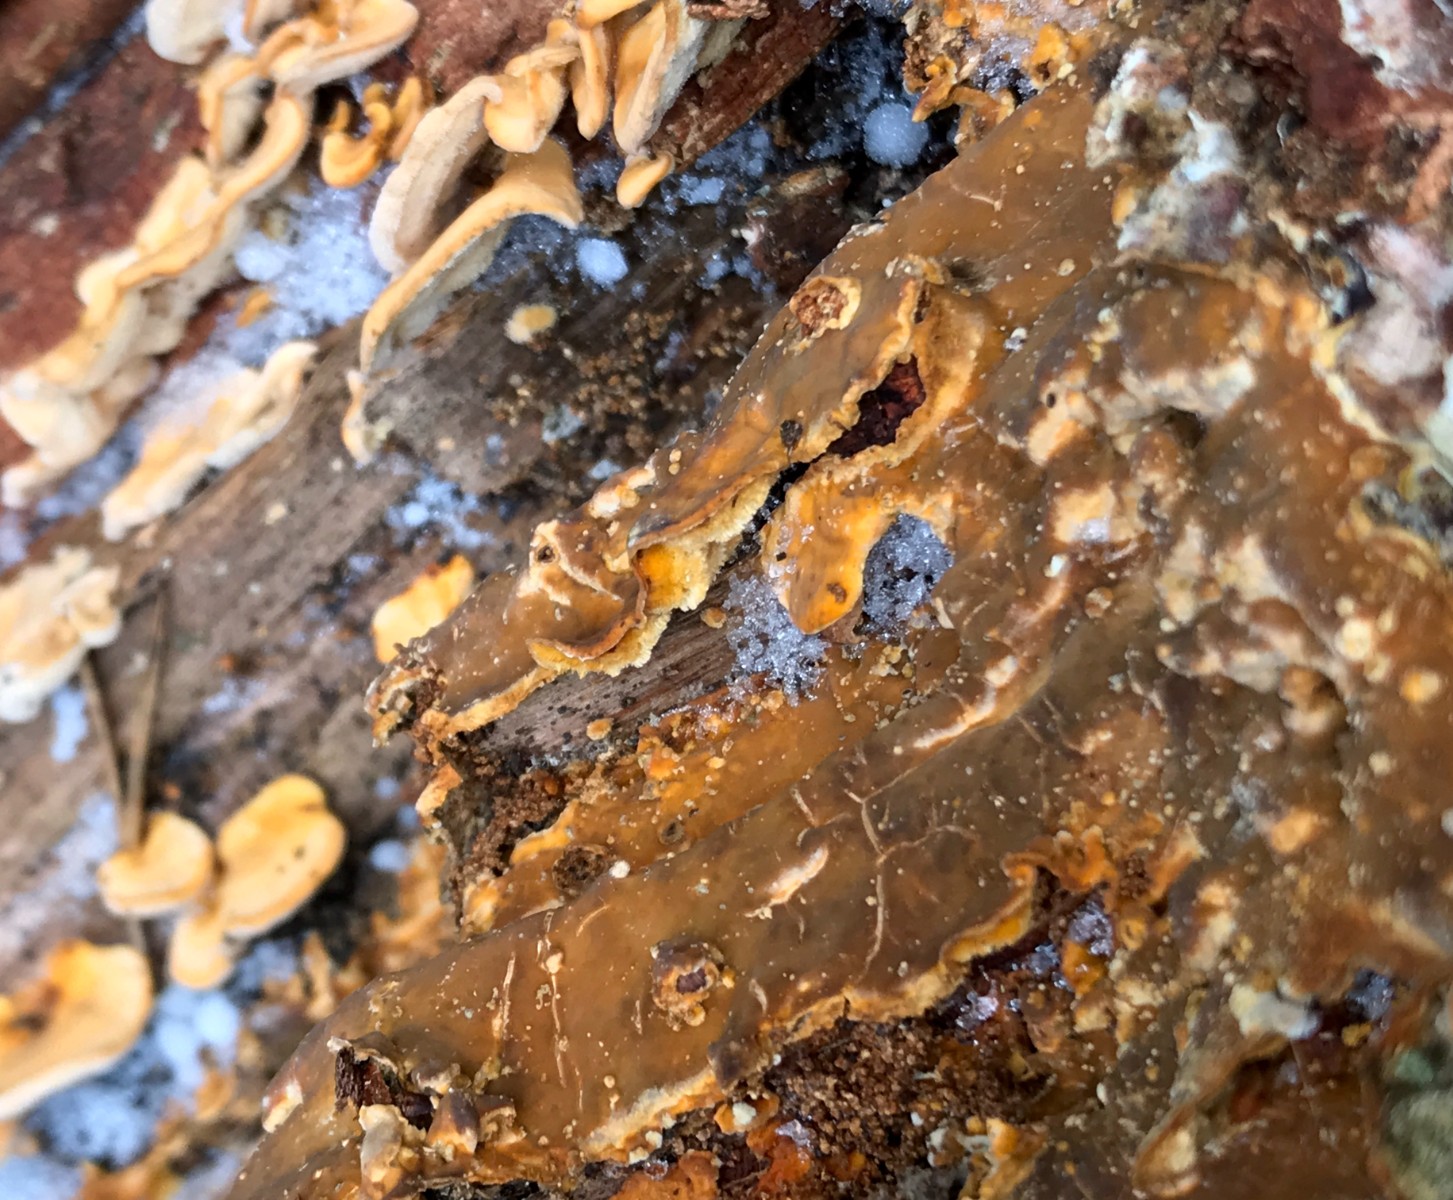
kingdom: Fungi
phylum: Basidiomycota
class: Agaricomycetes
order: Russulales
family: Stereaceae
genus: Stereum
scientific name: Stereum hirsutum
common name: håret lædersvamp
